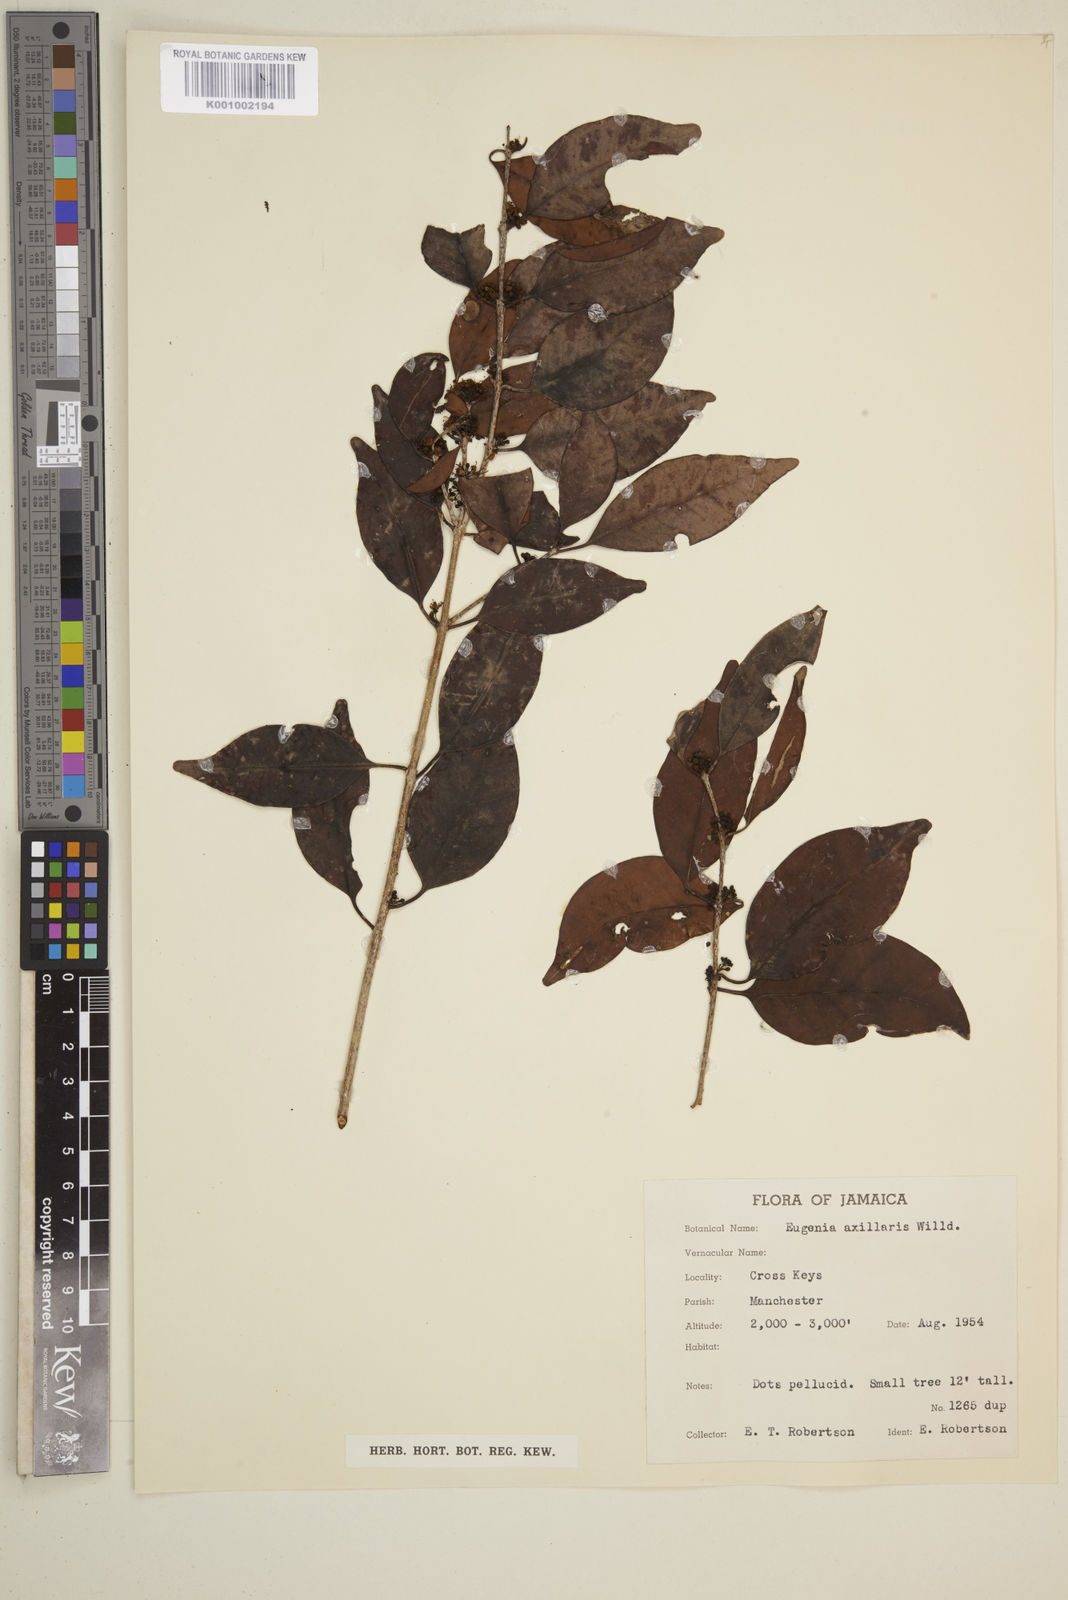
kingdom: Plantae
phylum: Tracheophyta
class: Magnoliopsida
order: Myrtales
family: Myrtaceae
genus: Eugenia
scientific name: Eugenia axillaris
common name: Choaky berry
